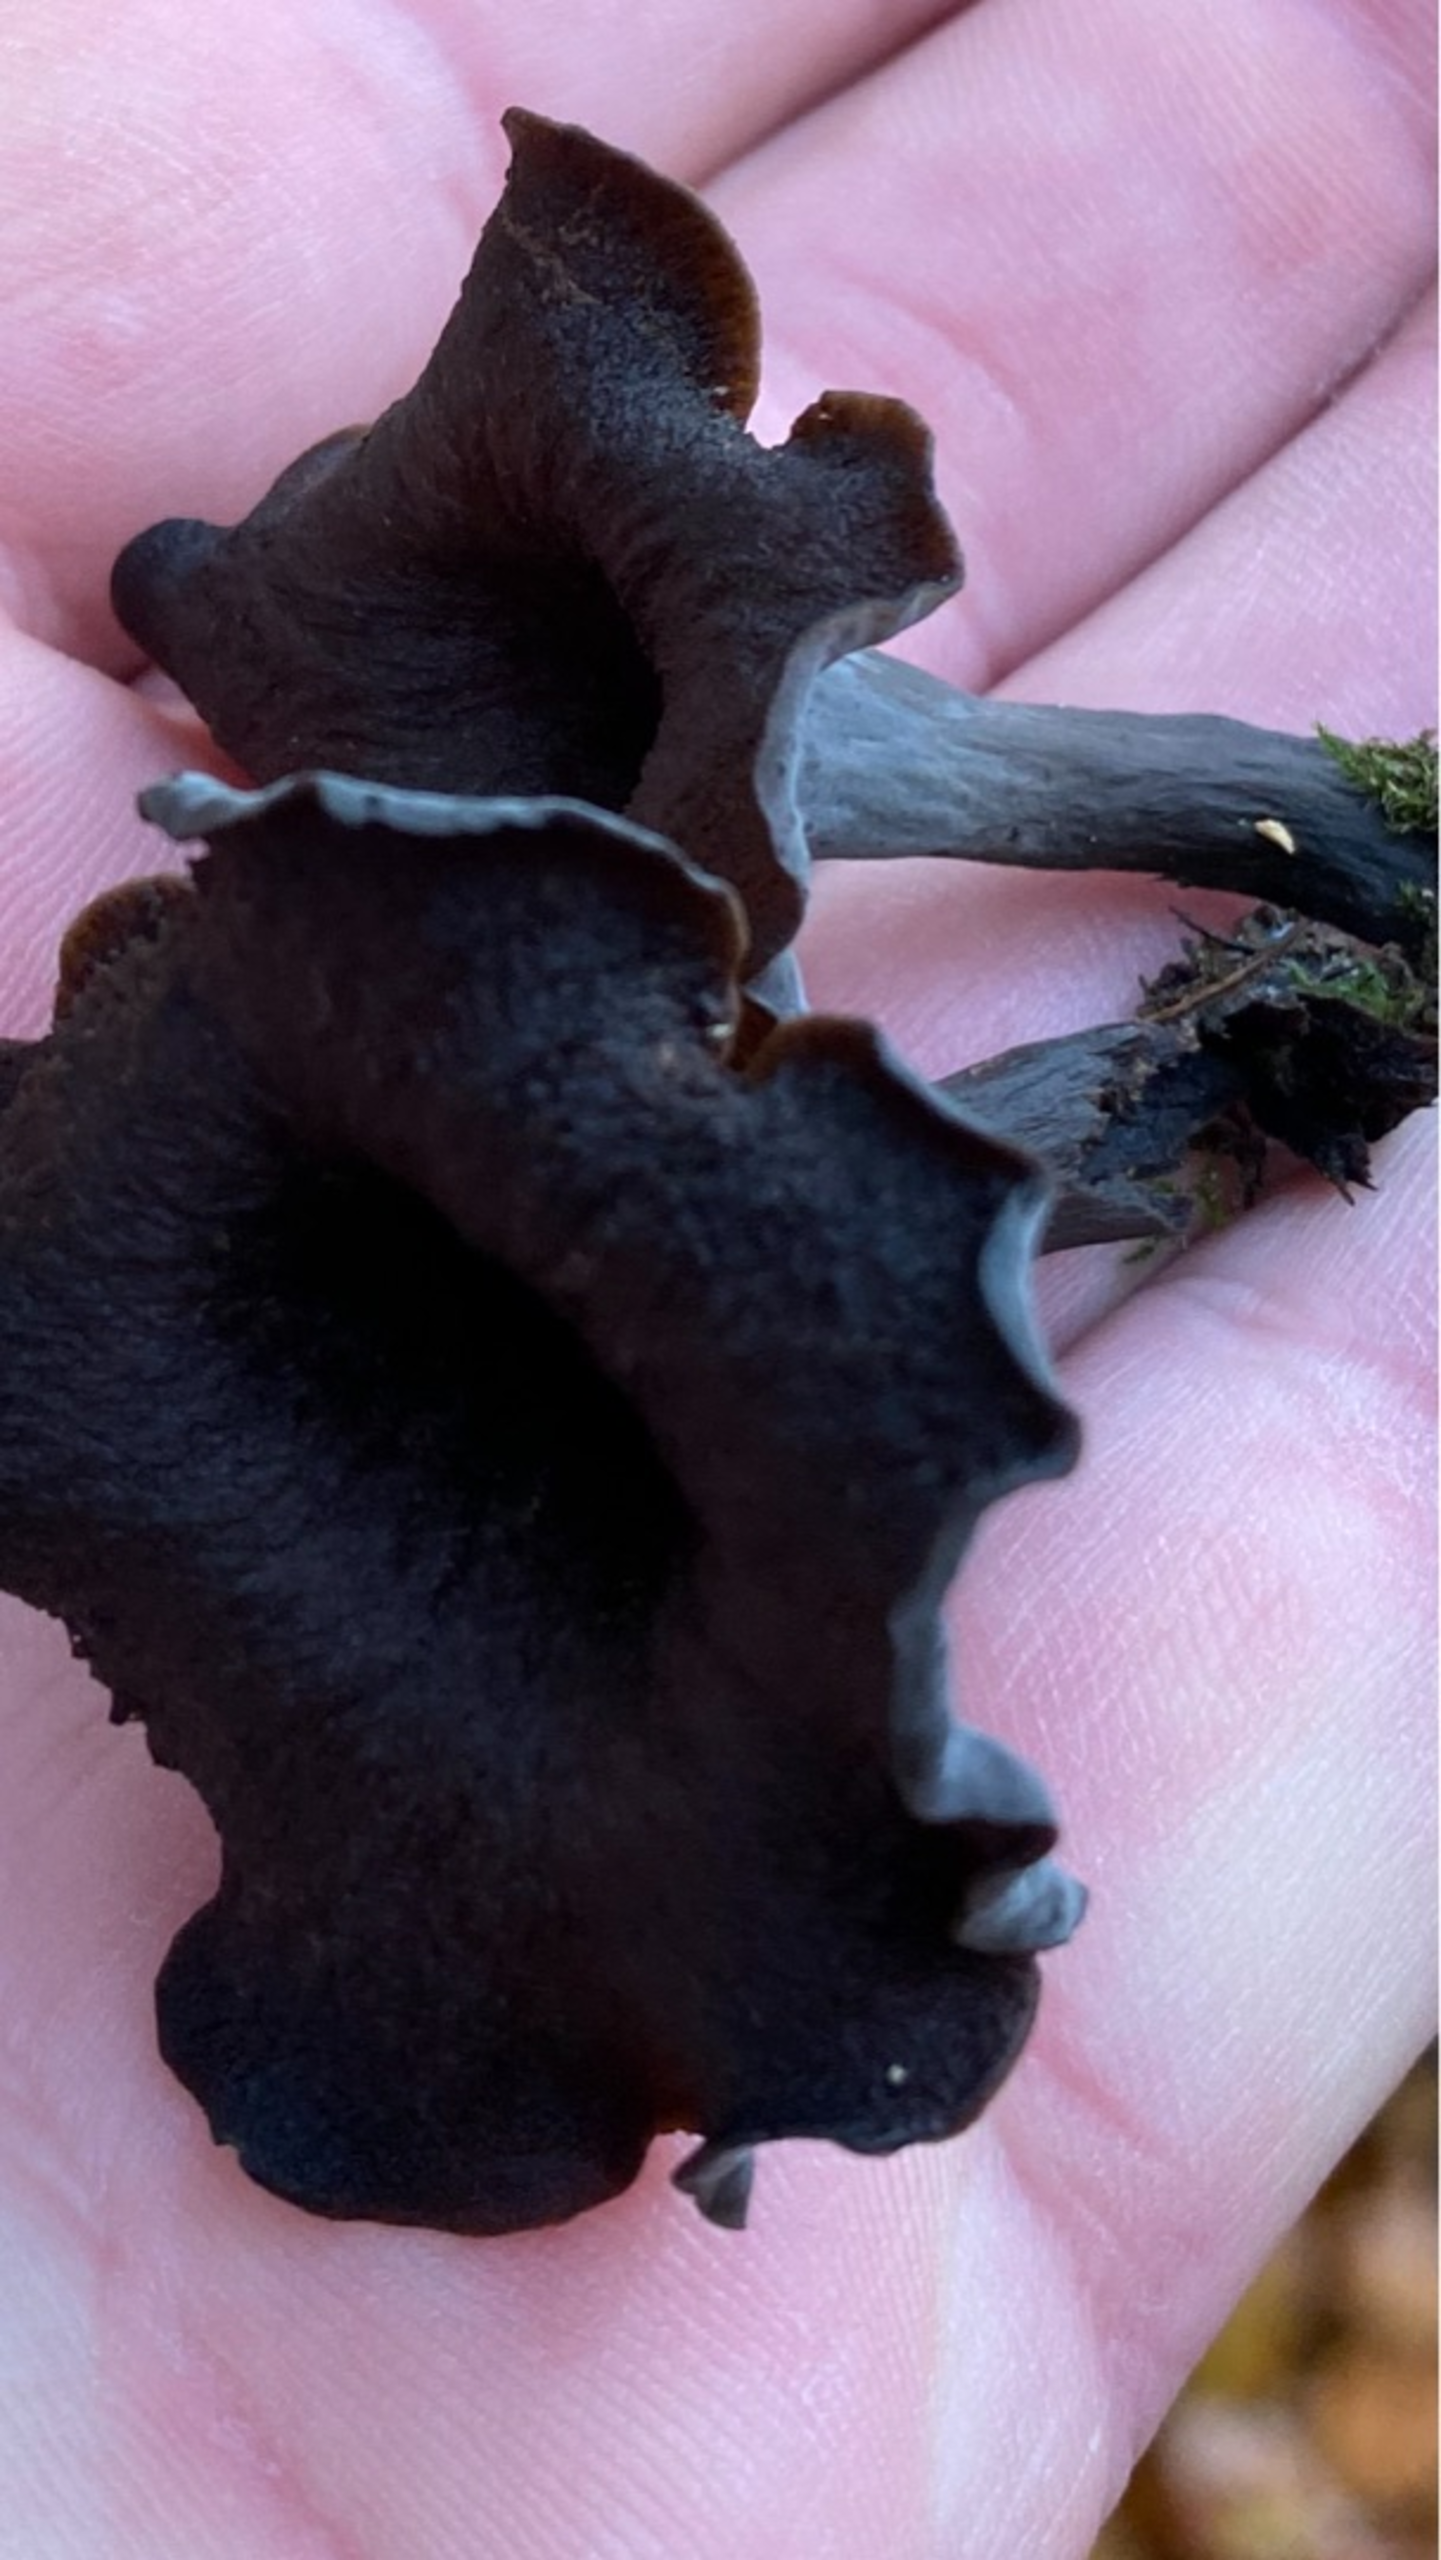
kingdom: Fungi
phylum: Basidiomycota
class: Agaricomycetes
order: Cantharellales
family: Hydnaceae
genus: Craterellus
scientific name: Craterellus cornucopioides
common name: Trompetsvamp
